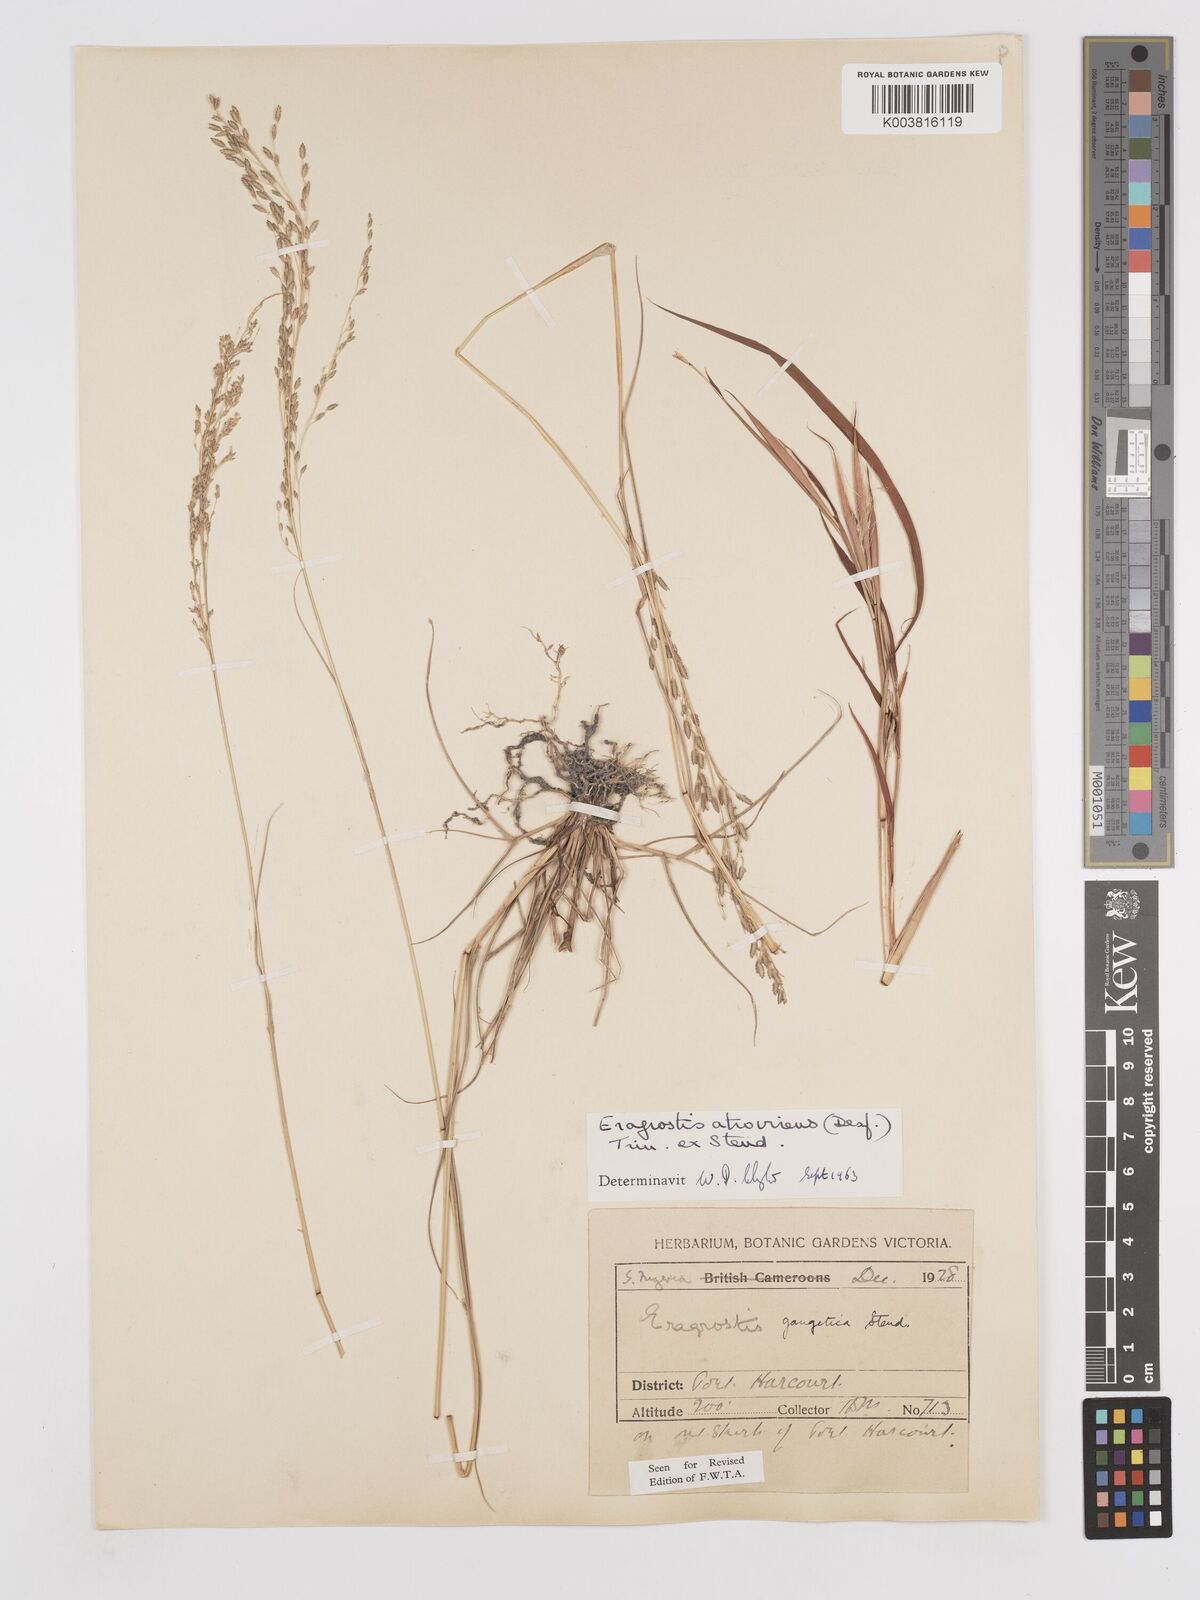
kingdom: Plantae
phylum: Tracheophyta
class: Liliopsida
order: Poales
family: Poaceae
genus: Eragrostis
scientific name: Eragrostis atrovirens
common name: Thalia lovegrass
